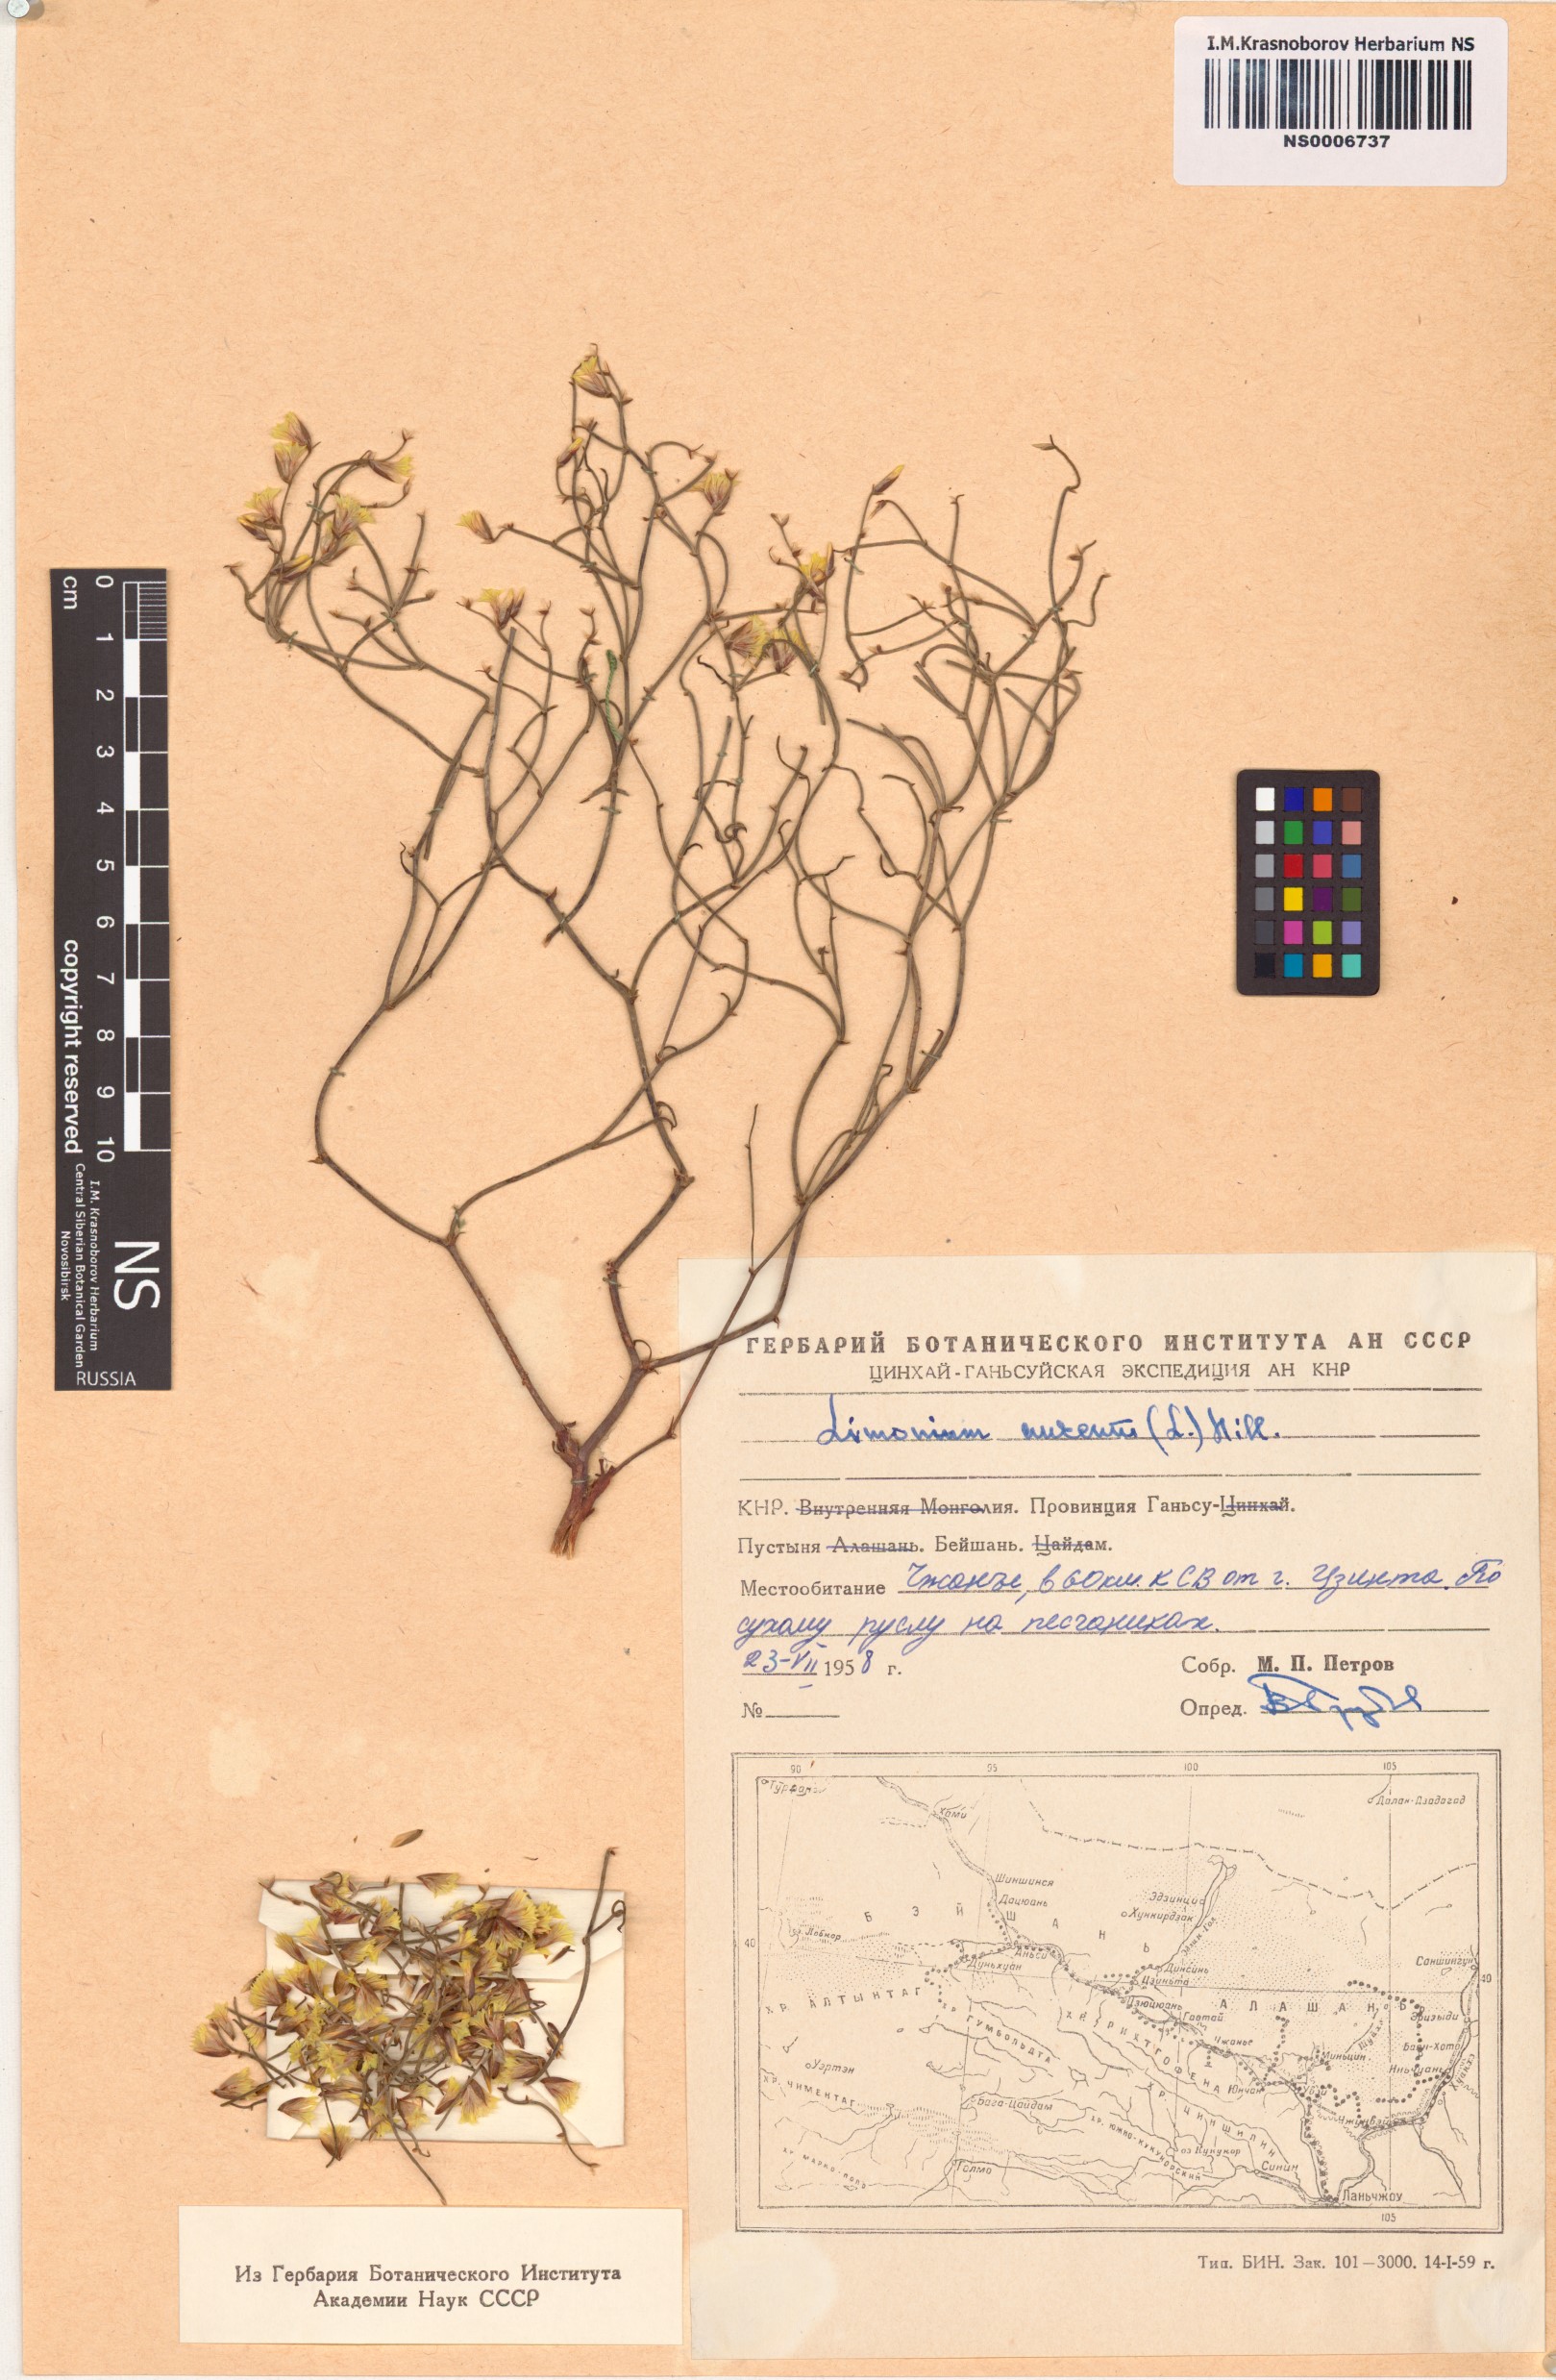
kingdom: Plantae
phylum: Tracheophyta
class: Magnoliopsida
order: Caryophyllales
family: Plumbaginaceae
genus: Limonium
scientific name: Limonium aureum
